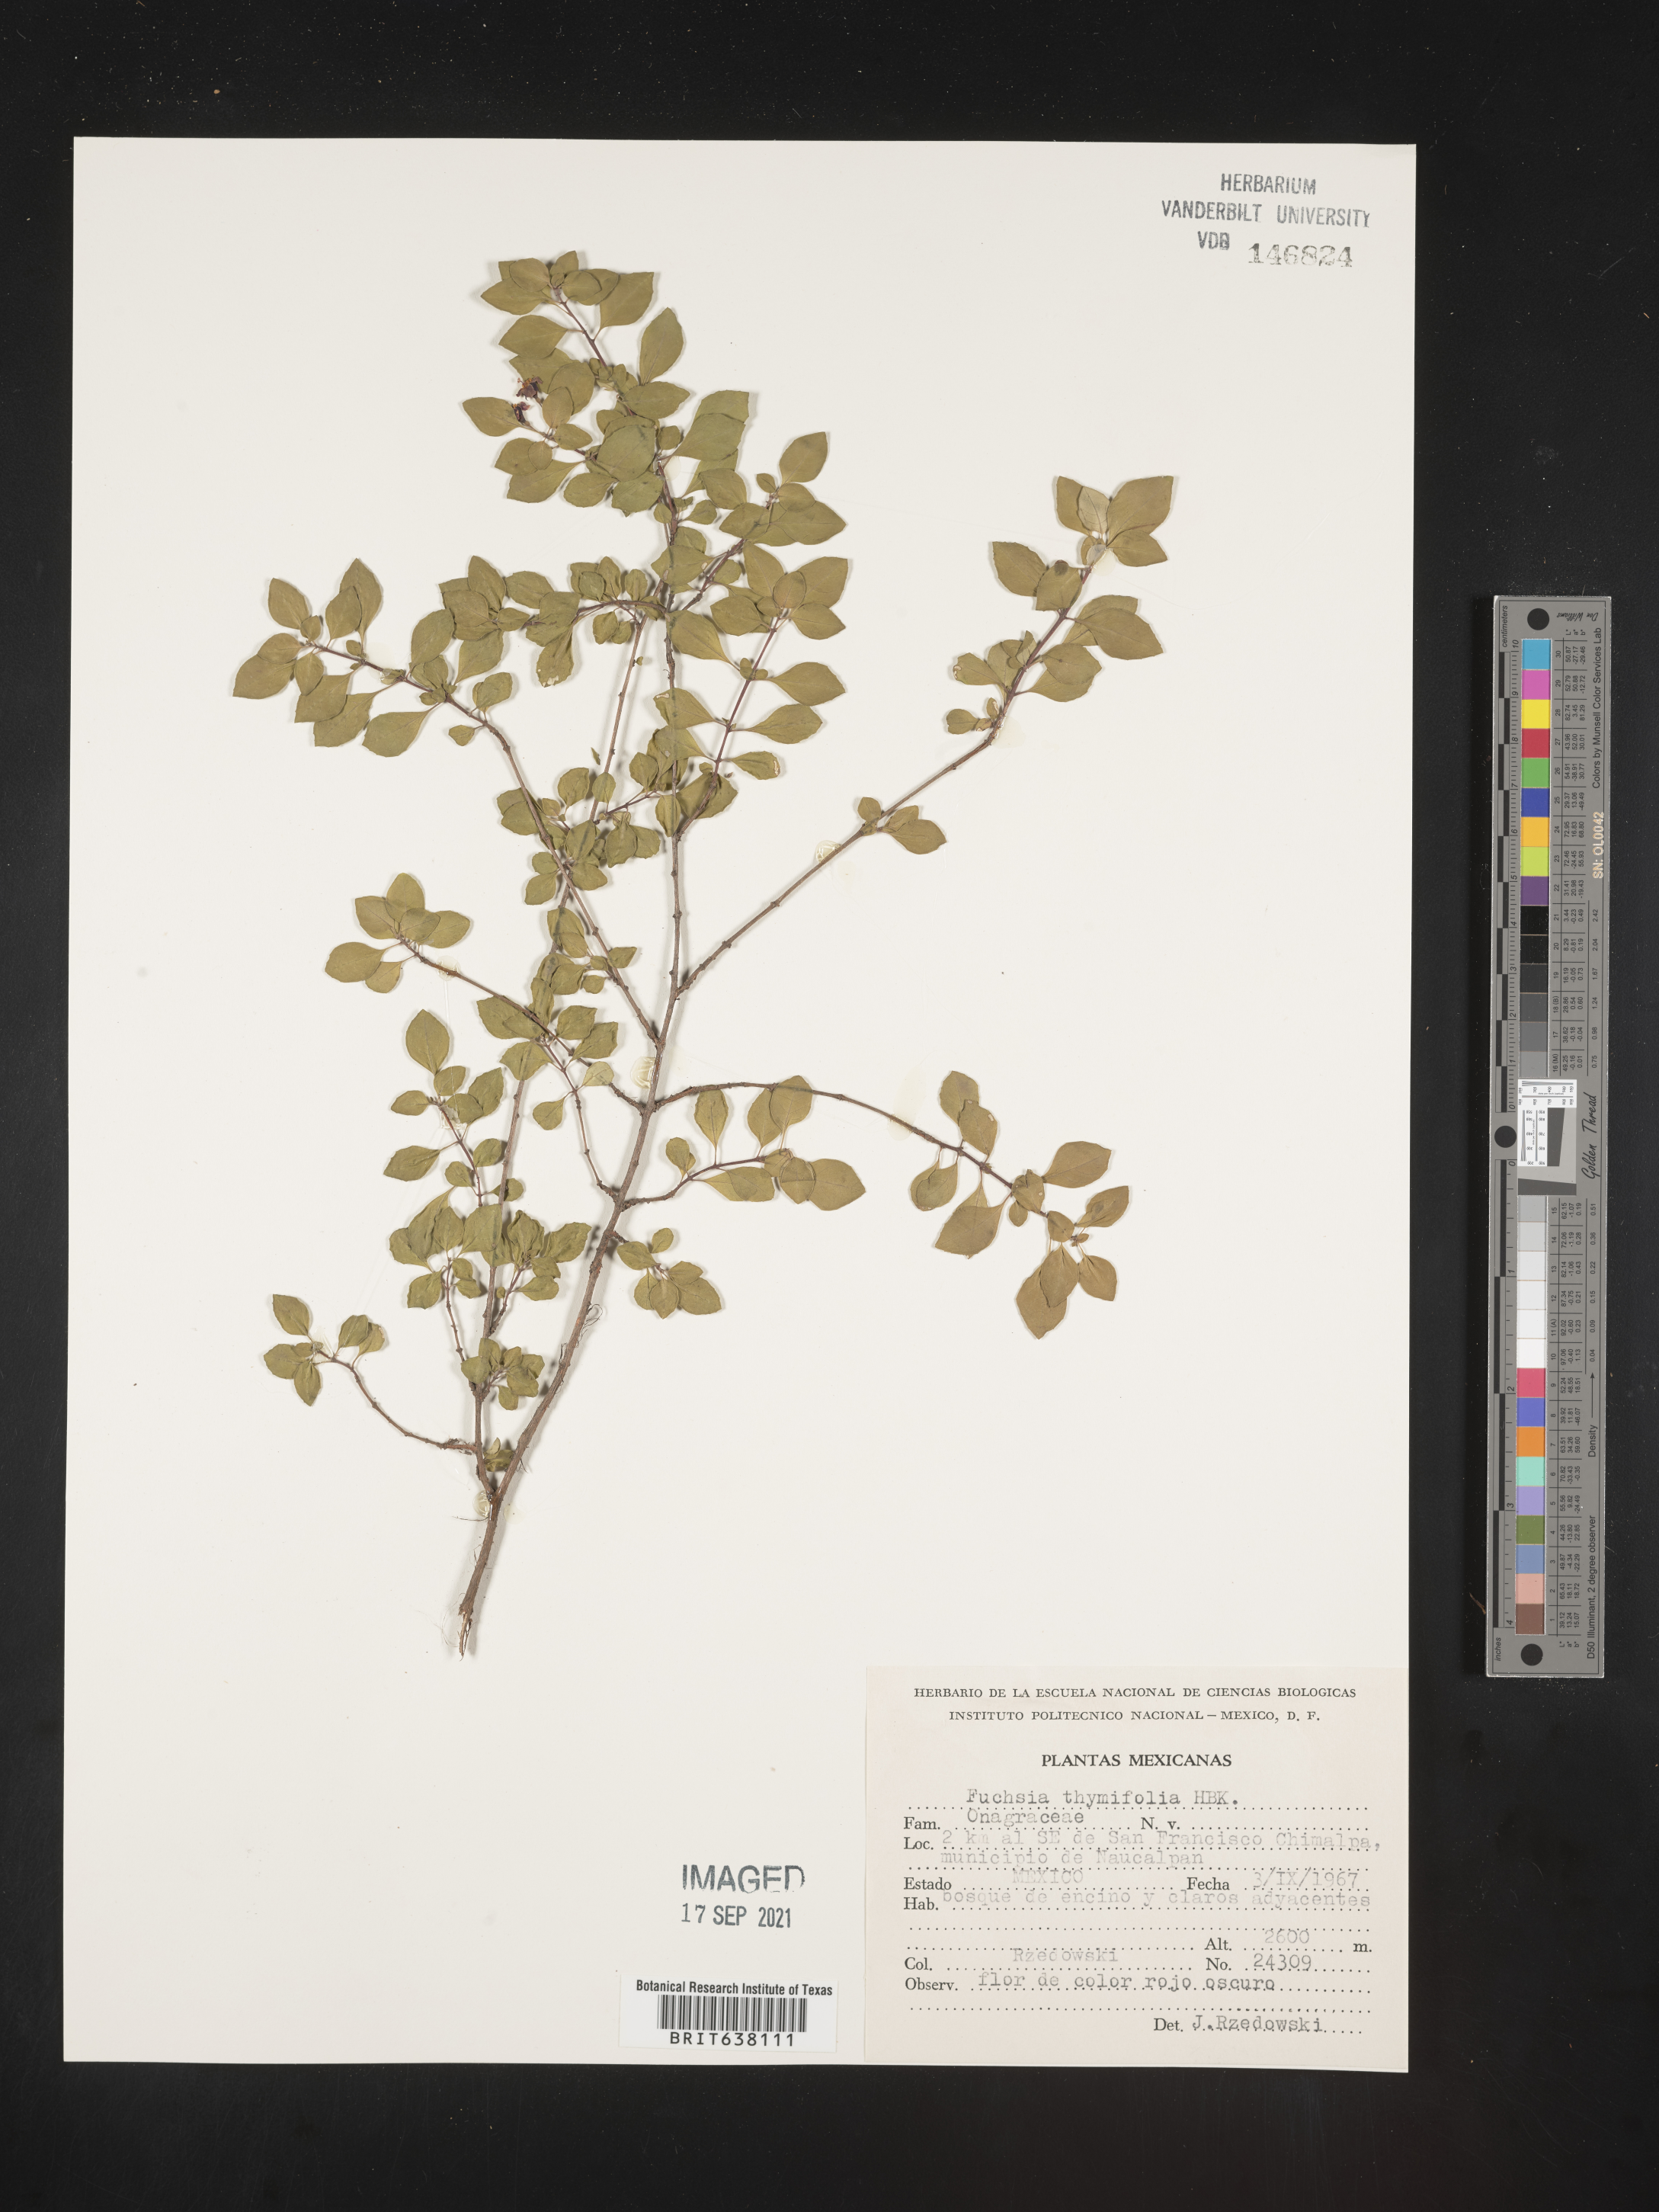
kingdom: Plantae
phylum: Tracheophyta
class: Magnoliopsida
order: Myrtales
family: Onagraceae
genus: Fuchsia
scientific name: Fuchsia
